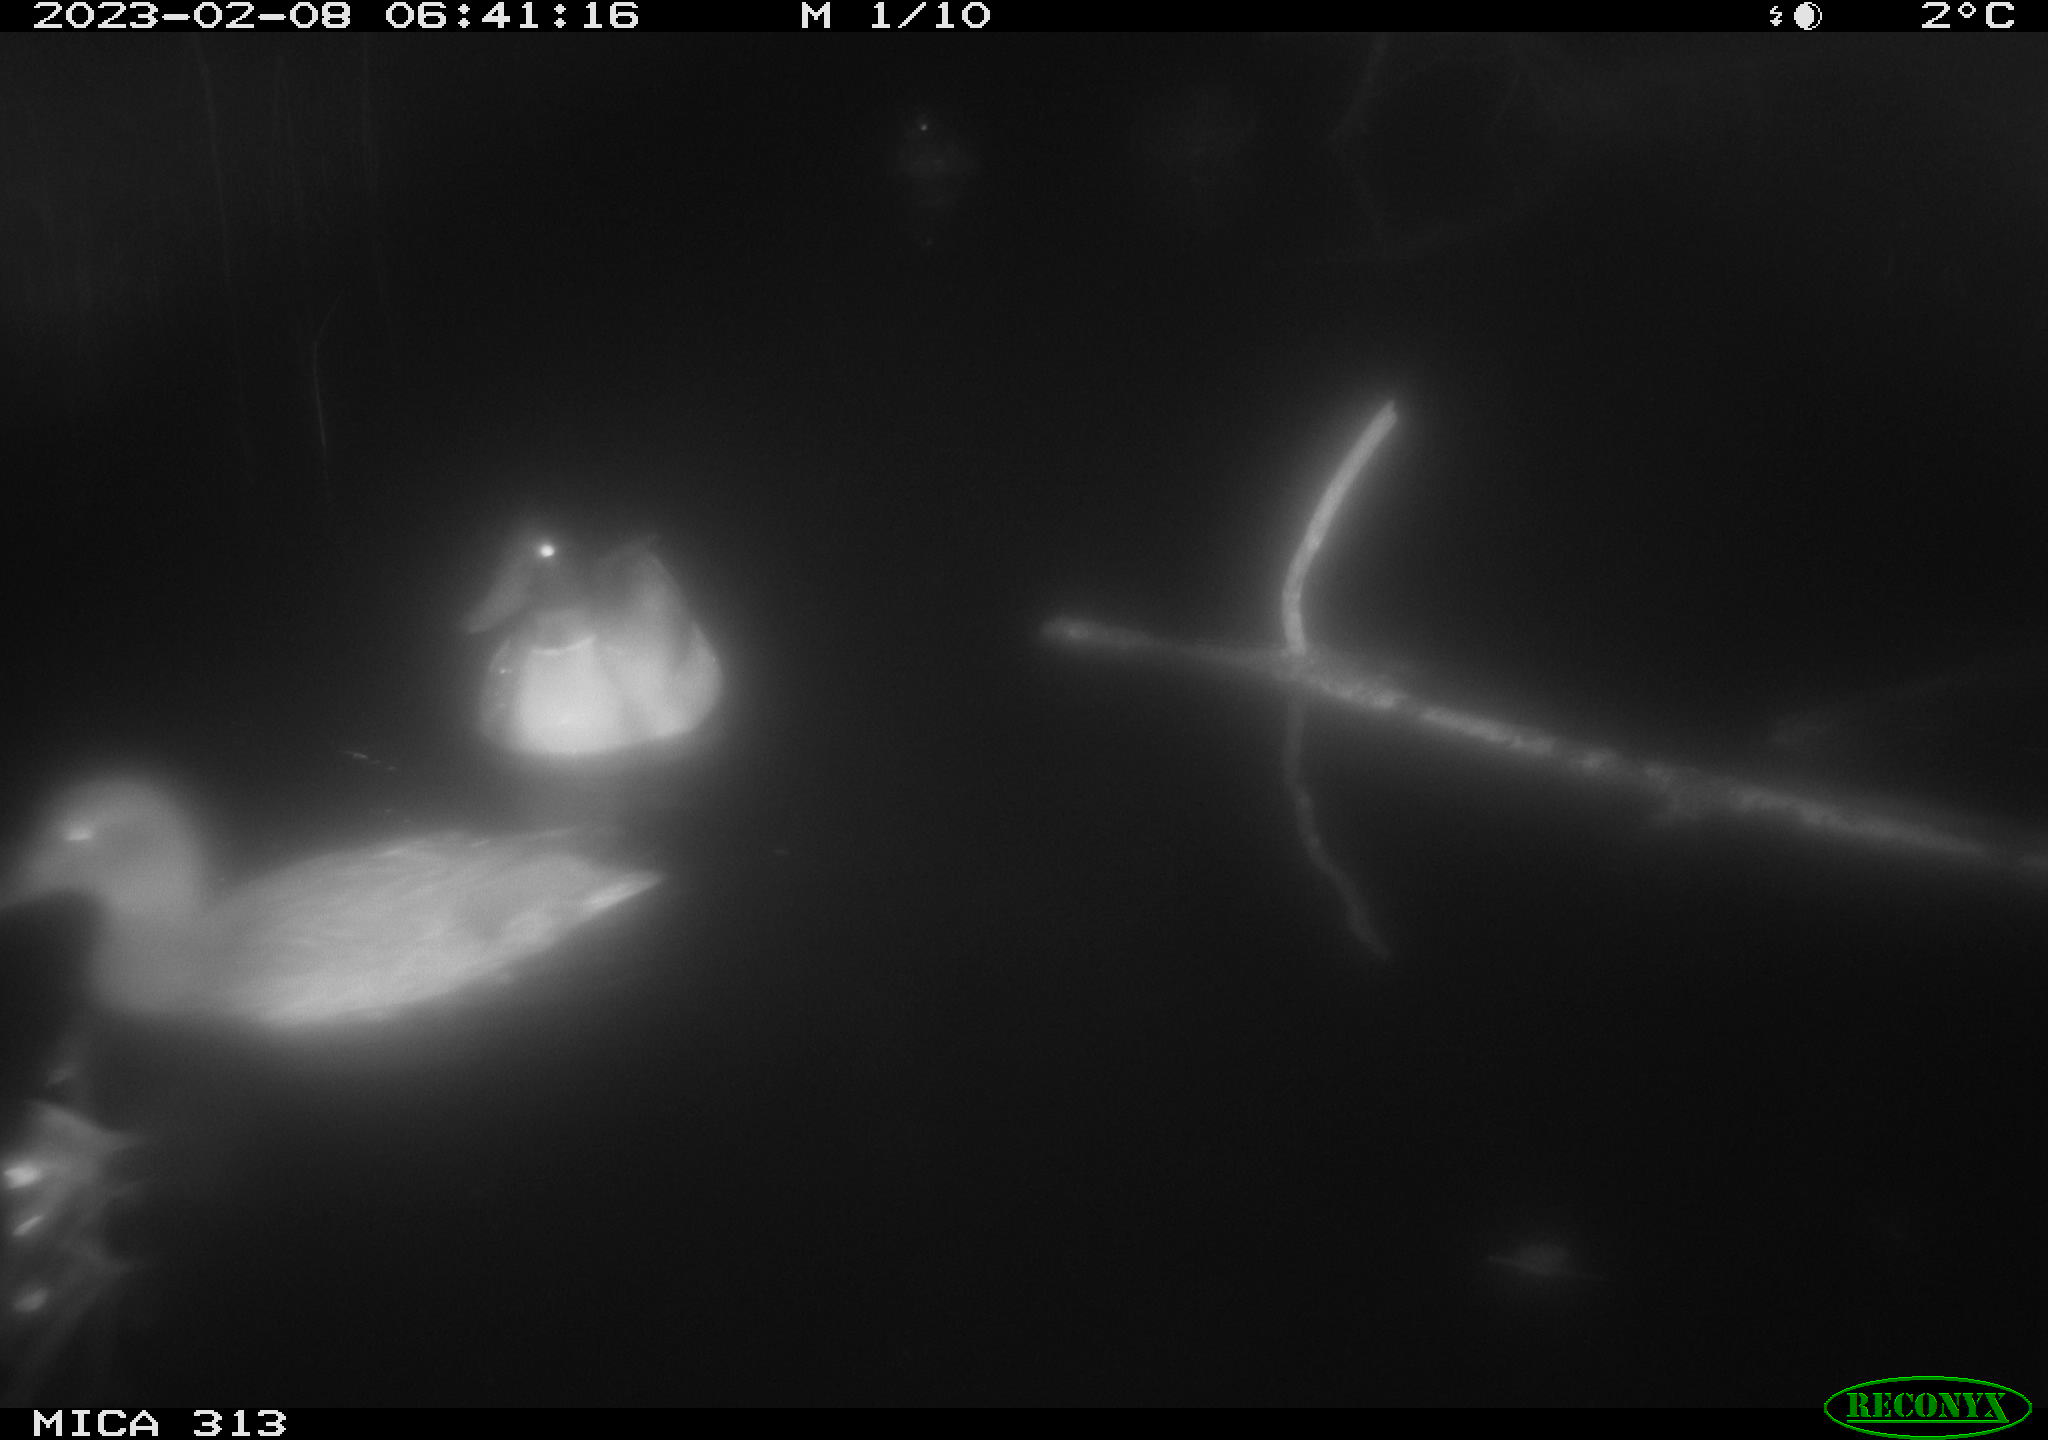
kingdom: Animalia
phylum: Chordata
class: Aves
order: Anseriformes
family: Anatidae
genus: Anas
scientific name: Anas
